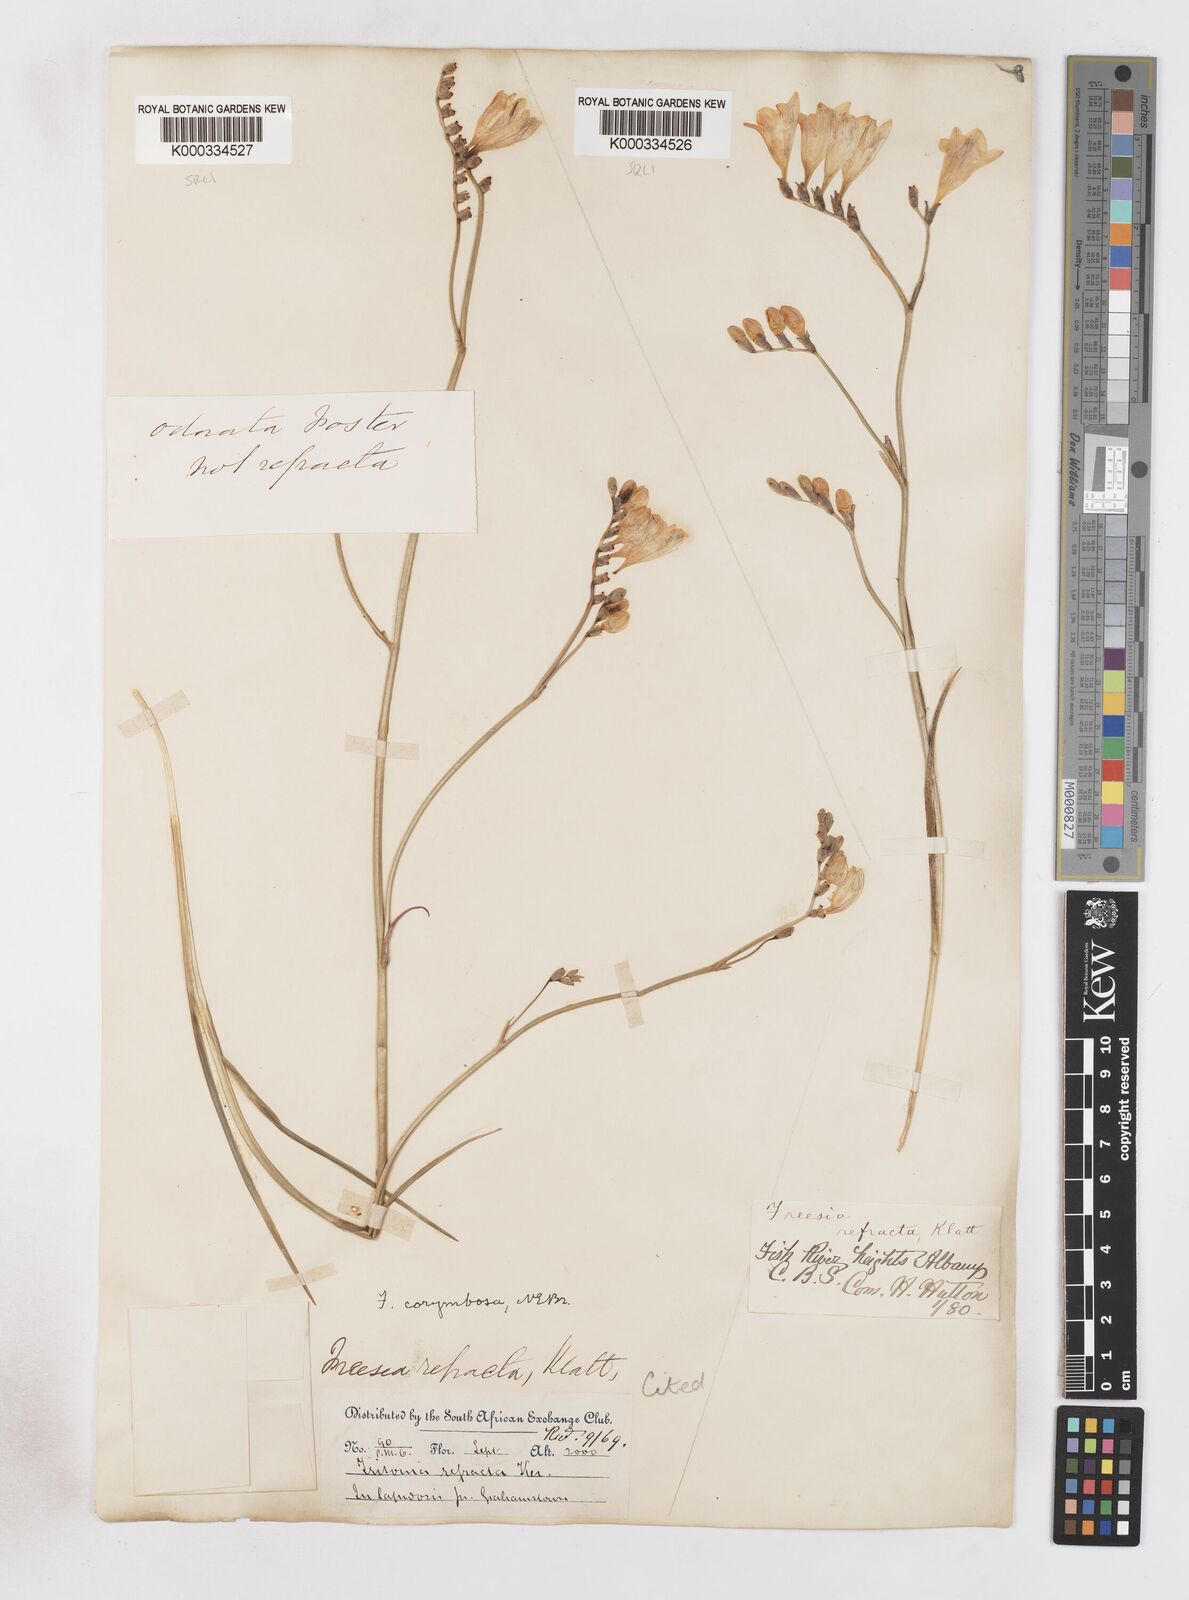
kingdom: Plantae
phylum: Tracheophyta
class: Liliopsida
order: Asparagales
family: Iridaceae
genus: Freesia
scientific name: Freesia corymbosa
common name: Common freesia
